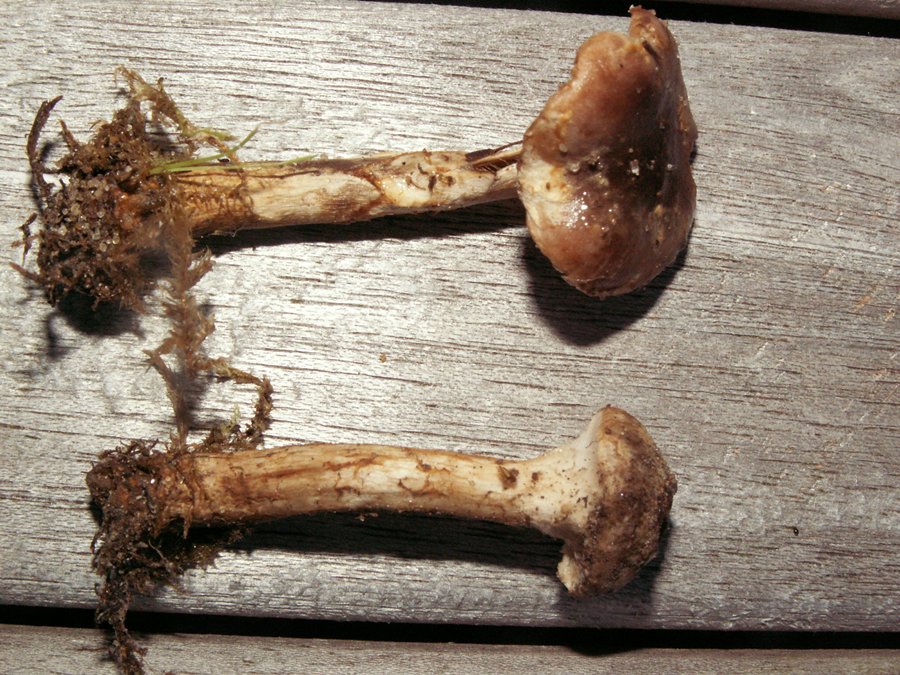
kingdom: Fungi
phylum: Basidiomycota
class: Agaricomycetes
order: Agaricales
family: Hymenogastraceae
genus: Hebeloma
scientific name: Hebeloma mesophaeum
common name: lerbrun tåreblad
